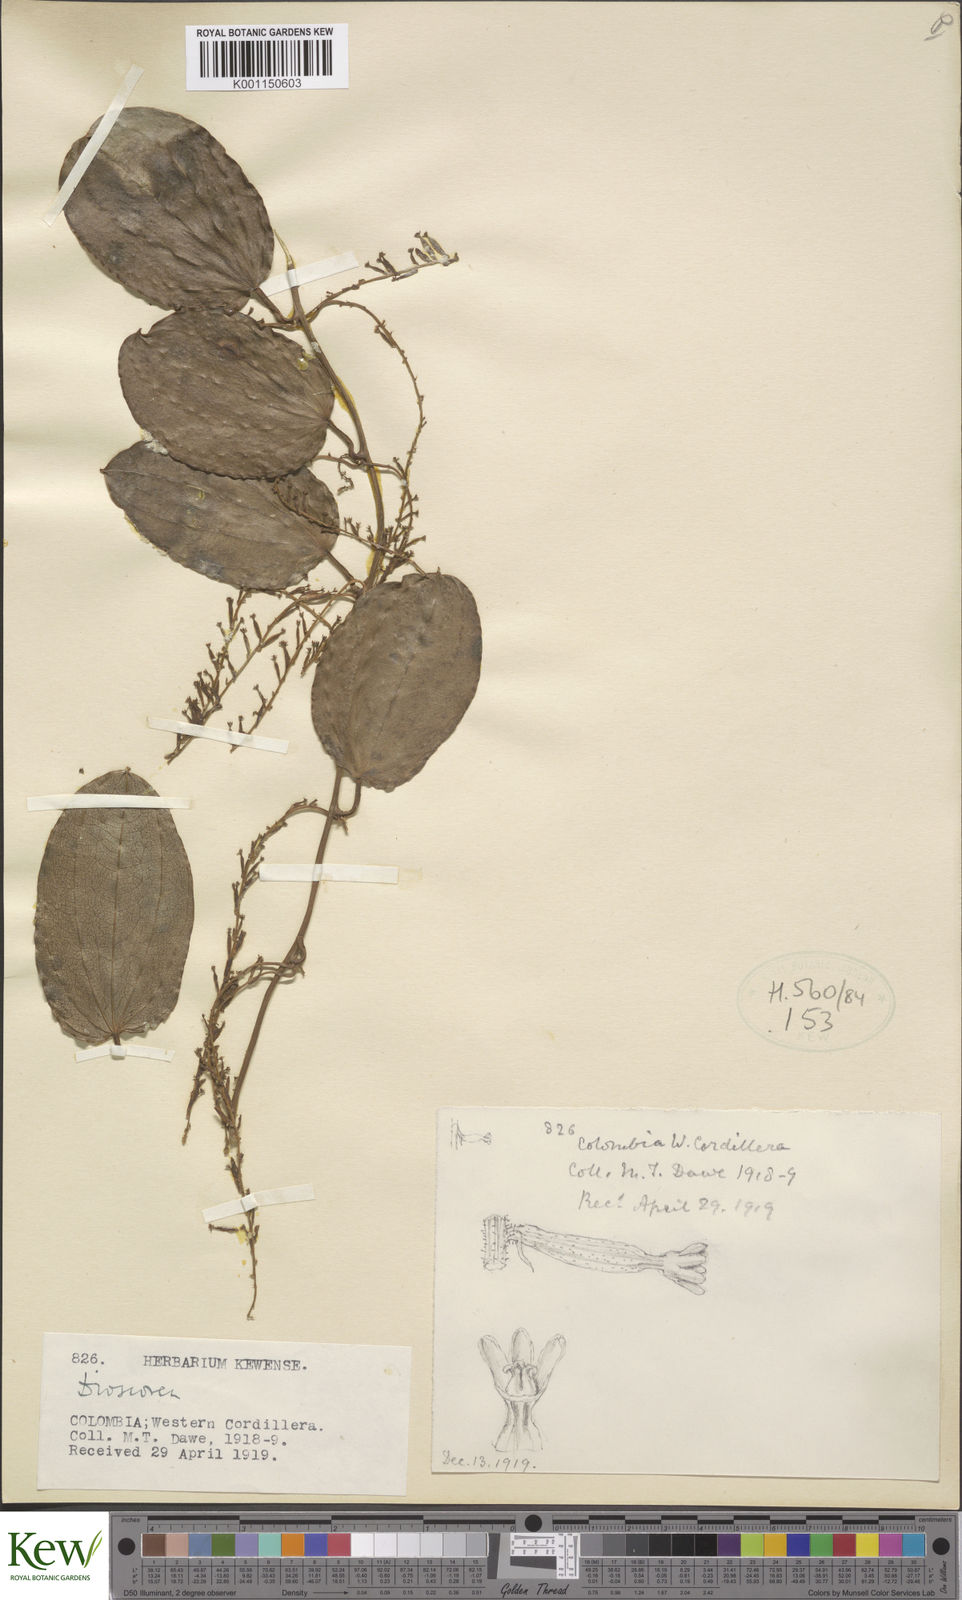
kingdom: Plantae
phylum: Tracheophyta
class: Liliopsida
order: Dioscoreales
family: Dioscoreaceae
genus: Dioscorea
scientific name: Dioscorea coriacea
